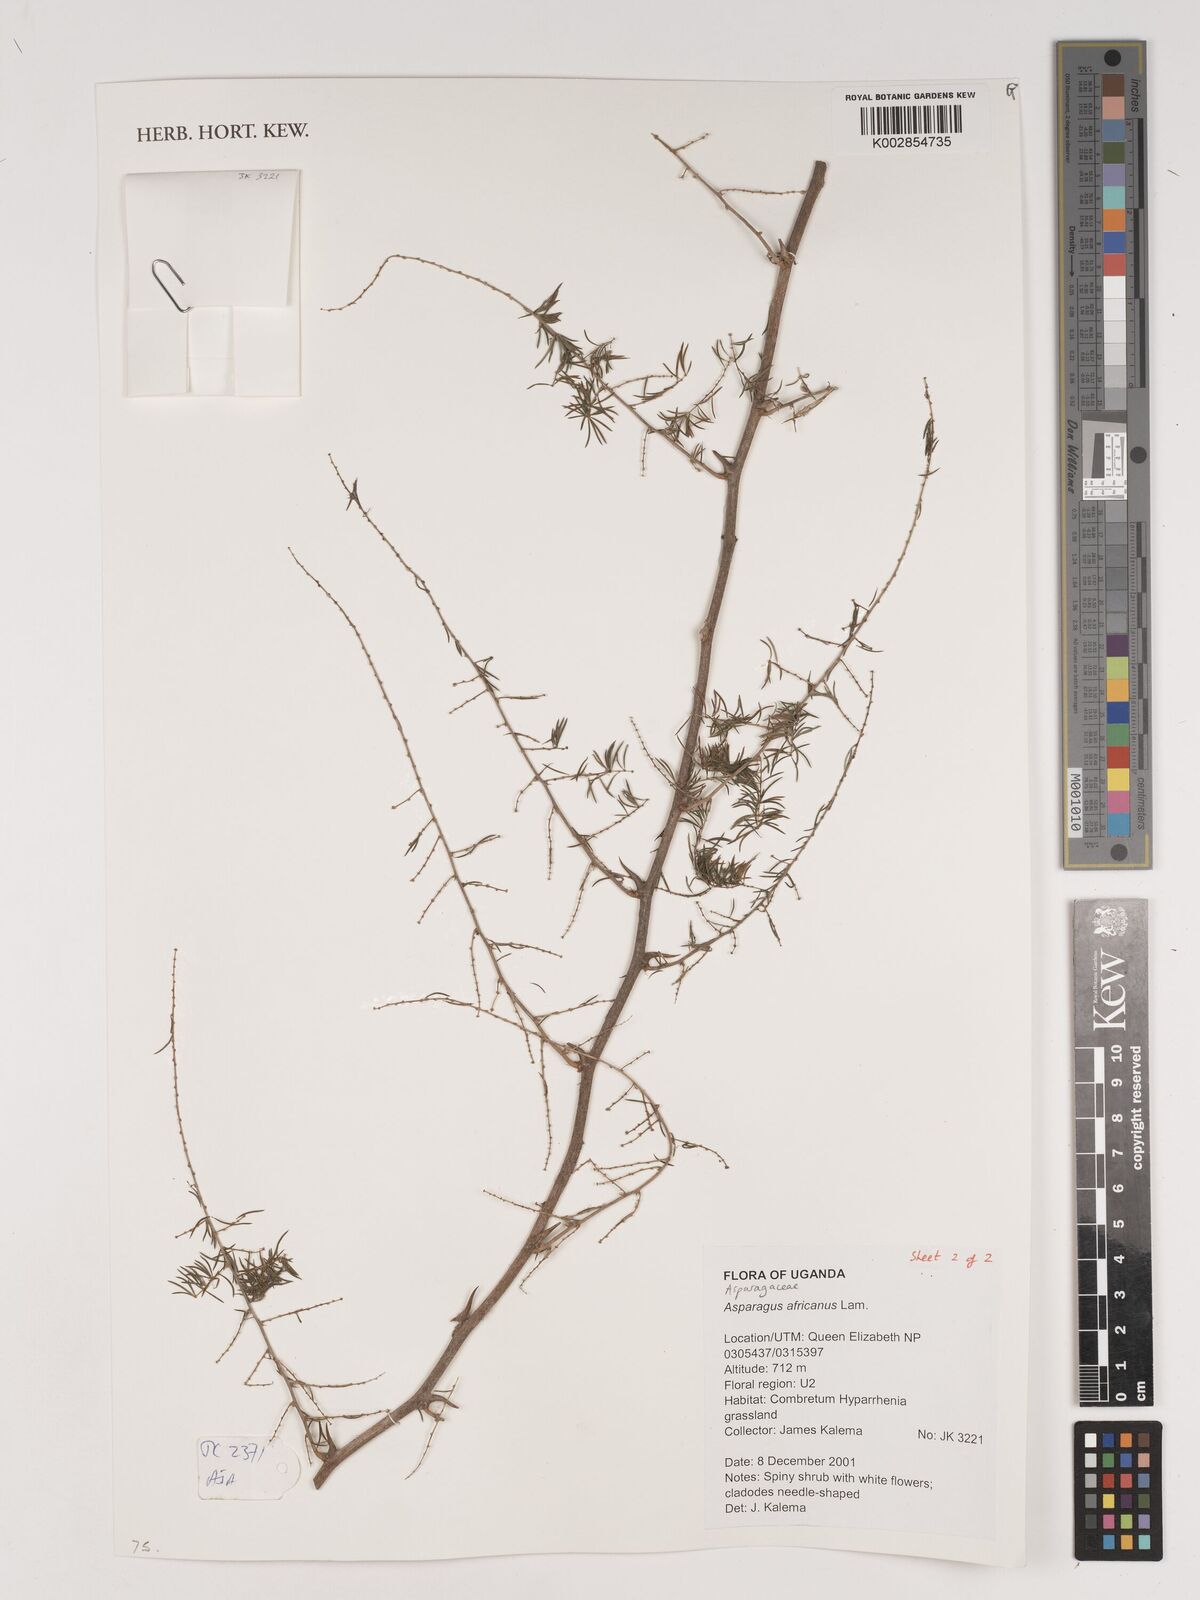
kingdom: Plantae
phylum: Tracheophyta
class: Liliopsida
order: Asparagales
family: Asparagaceae
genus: Asparagus
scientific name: Asparagus africanus
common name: Asparagus-fern
